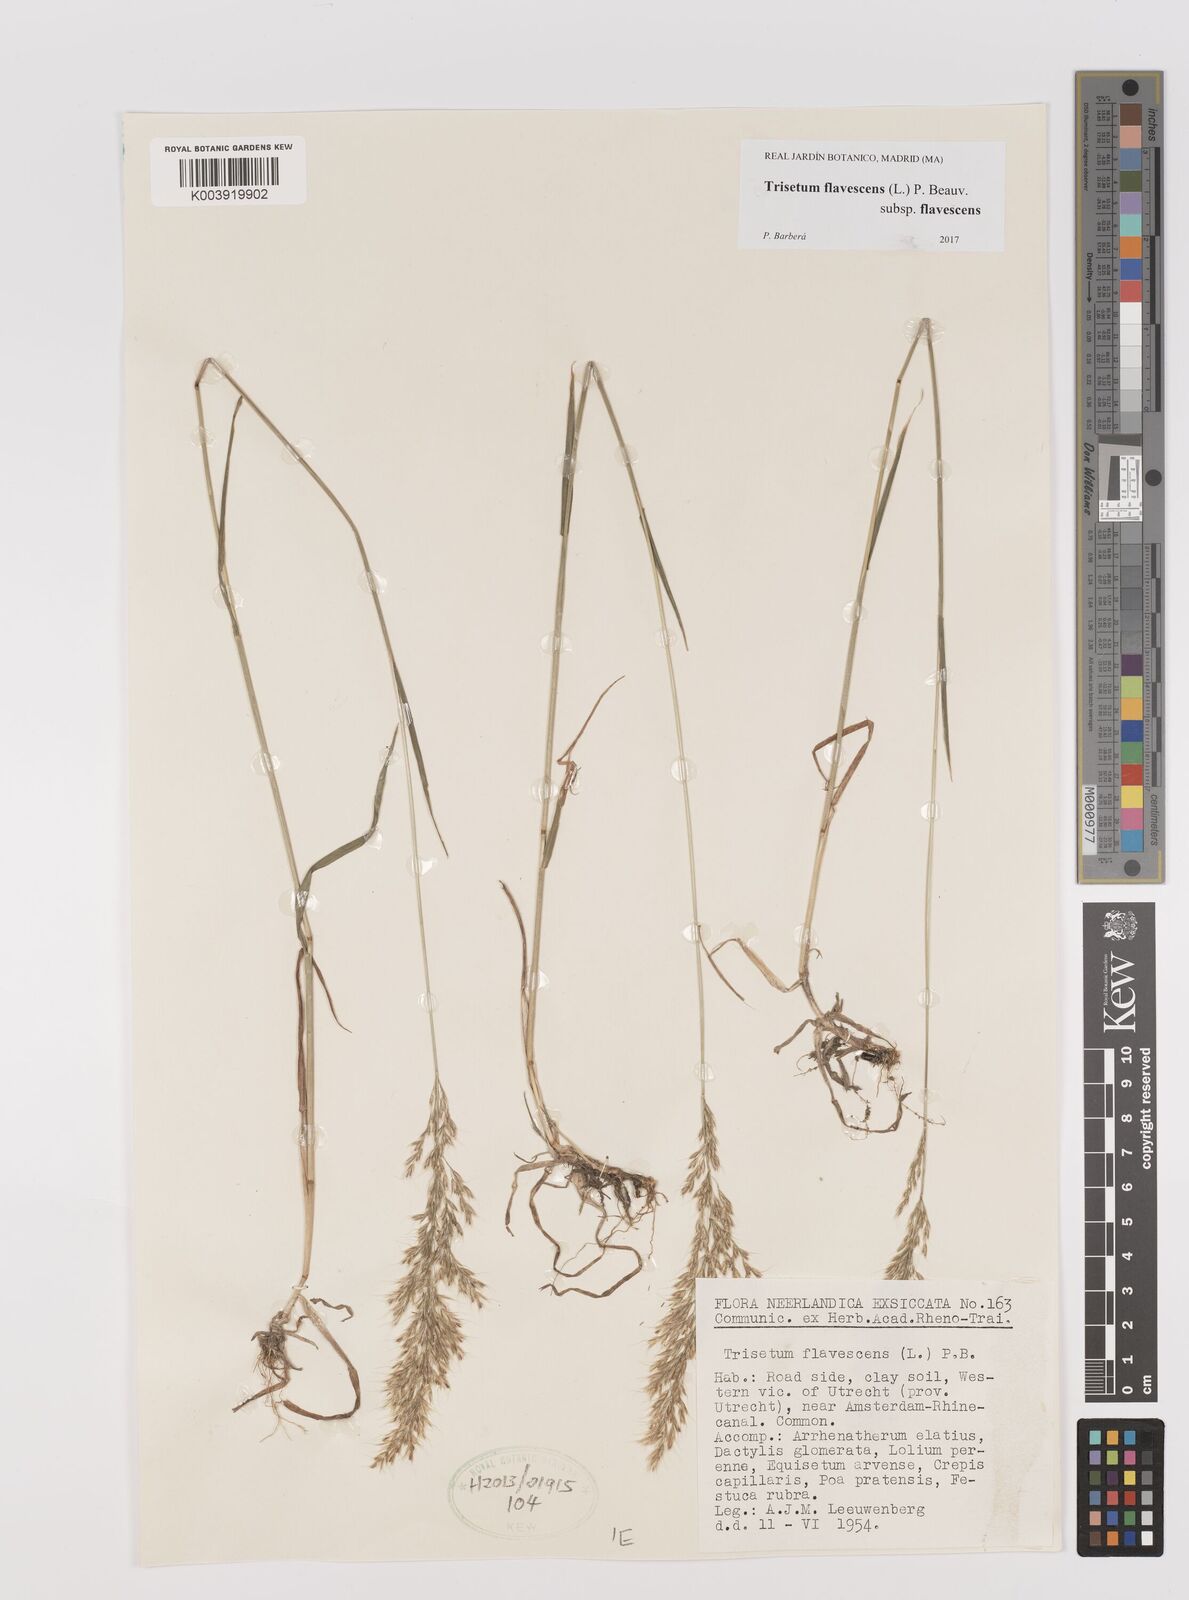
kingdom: Plantae
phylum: Tracheophyta
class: Liliopsida
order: Poales
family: Poaceae
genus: Trisetum
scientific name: Trisetum flavescens
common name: Yellow oat-grass
